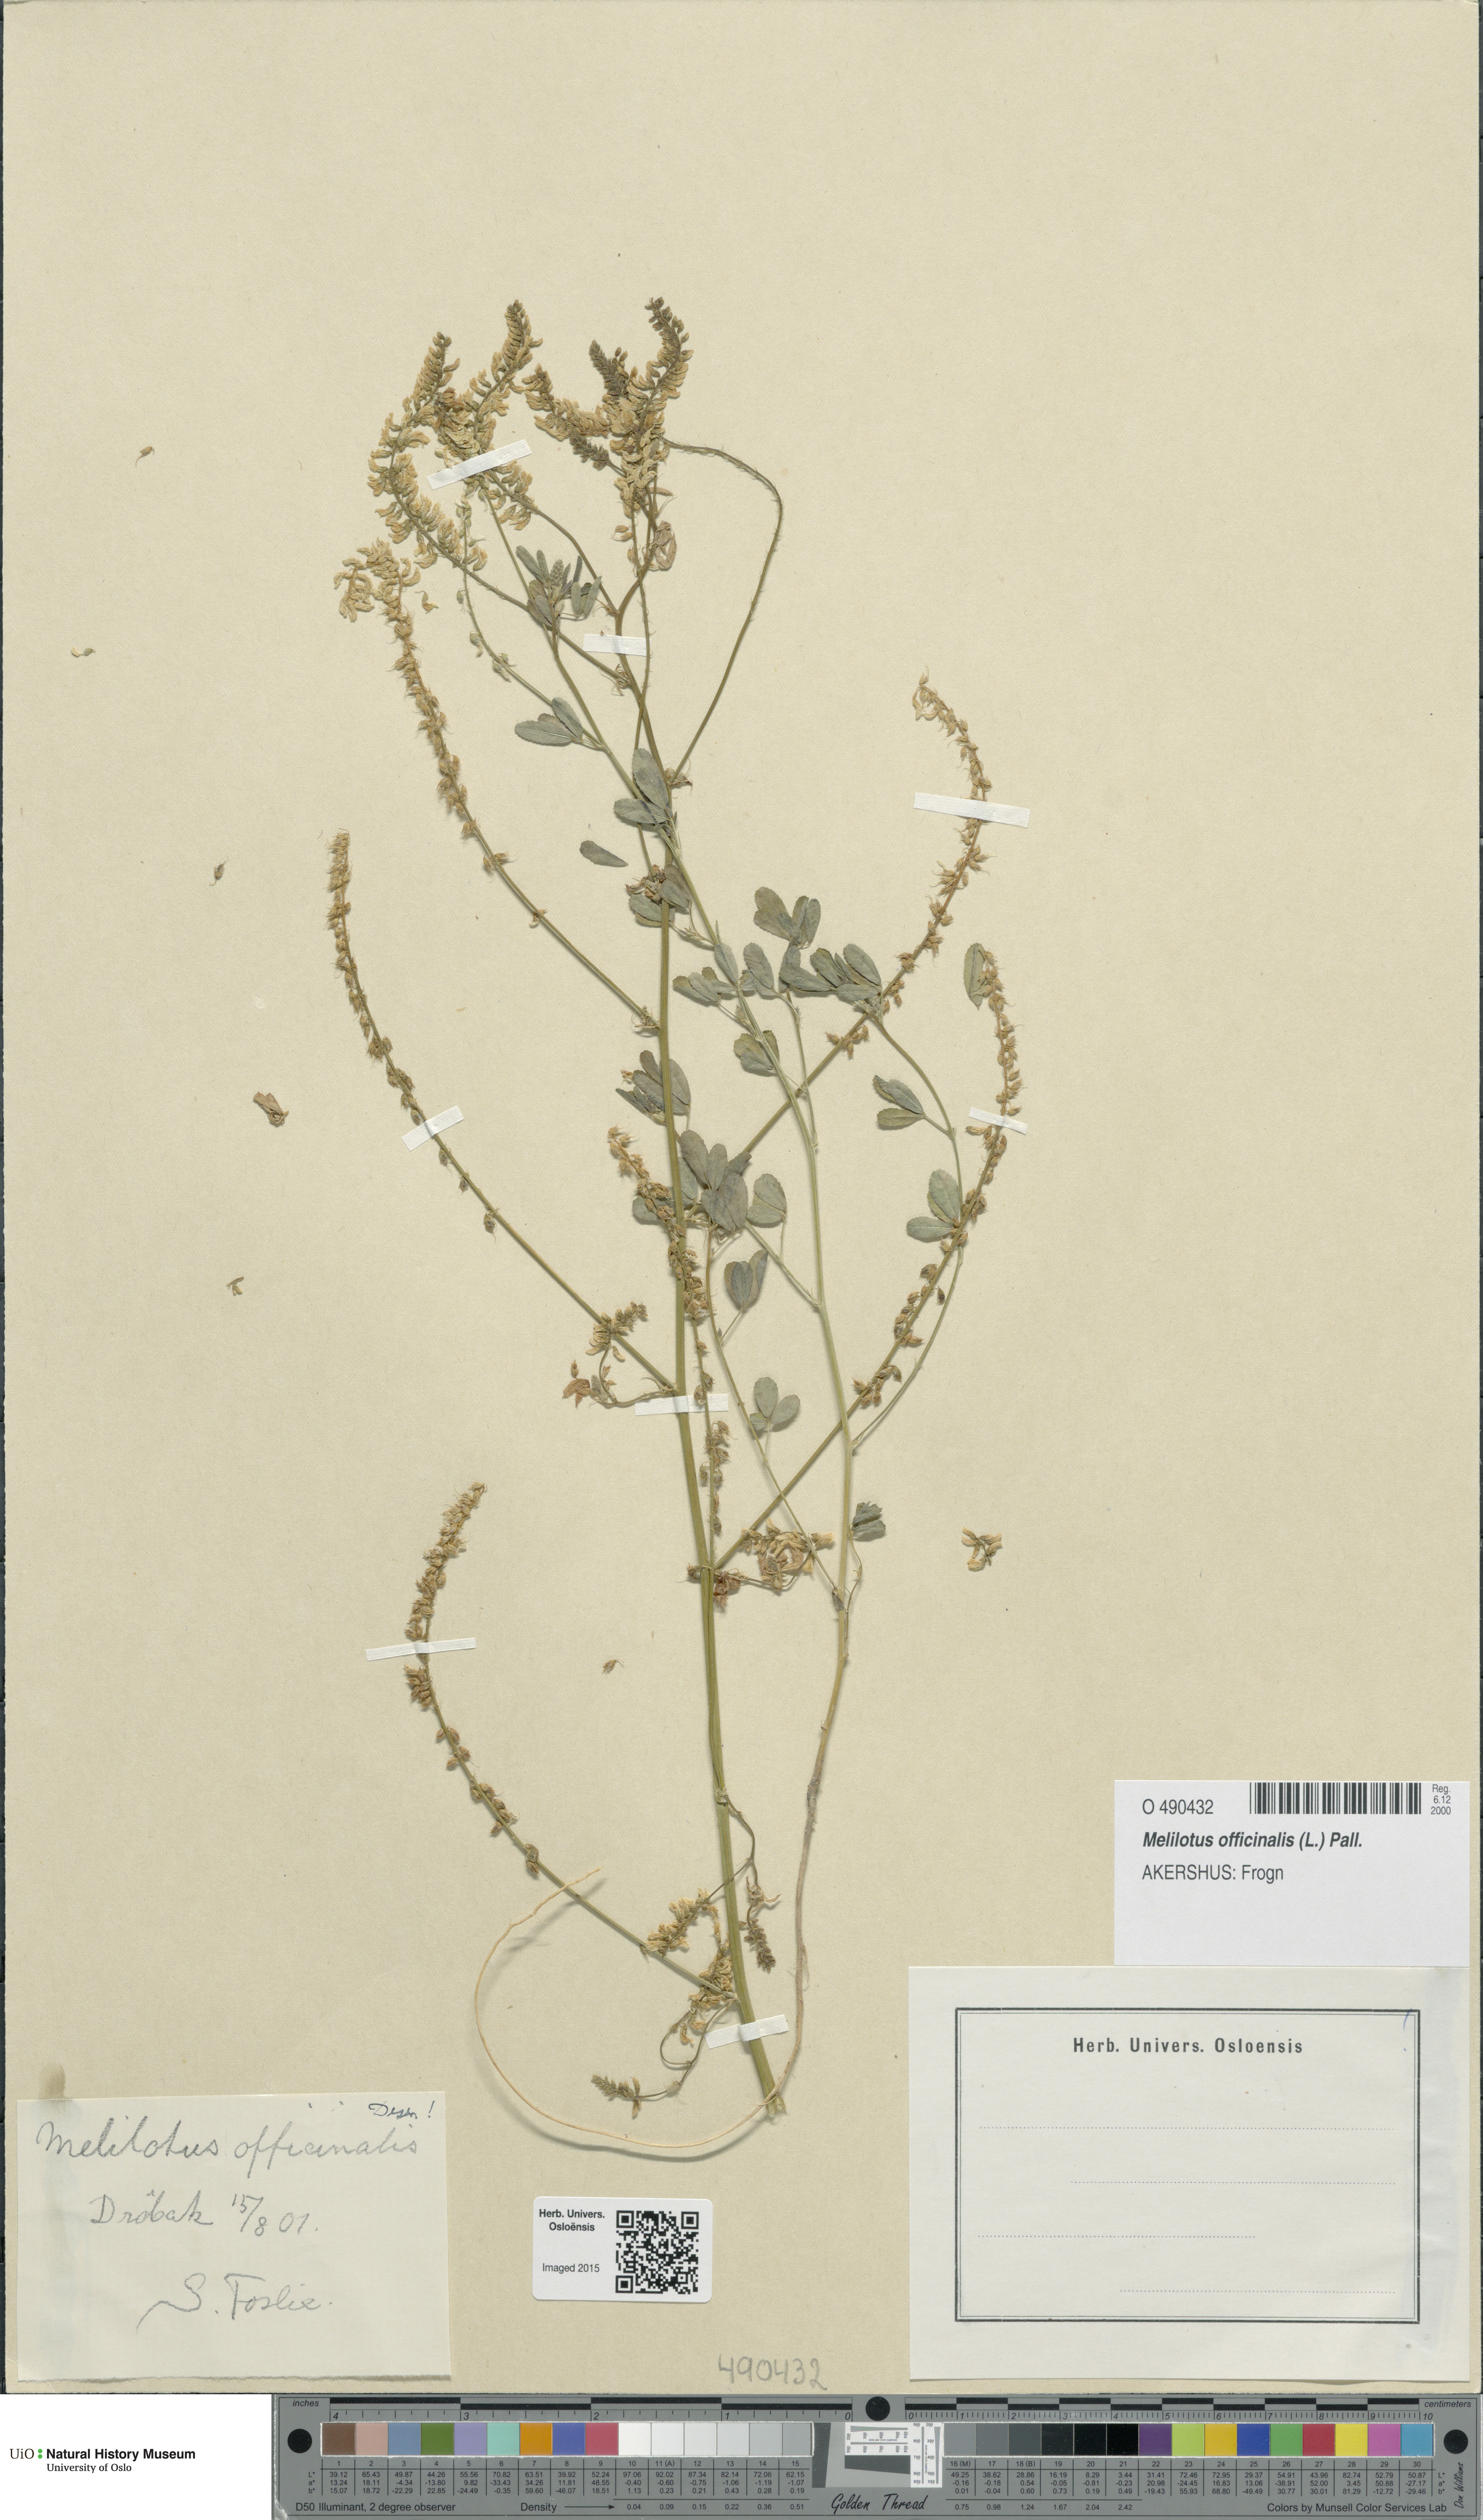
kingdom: Plantae
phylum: Tracheophyta
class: Magnoliopsida
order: Fabales
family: Fabaceae
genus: Melilotus
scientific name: Melilotus officinalis
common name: Sweetclover
